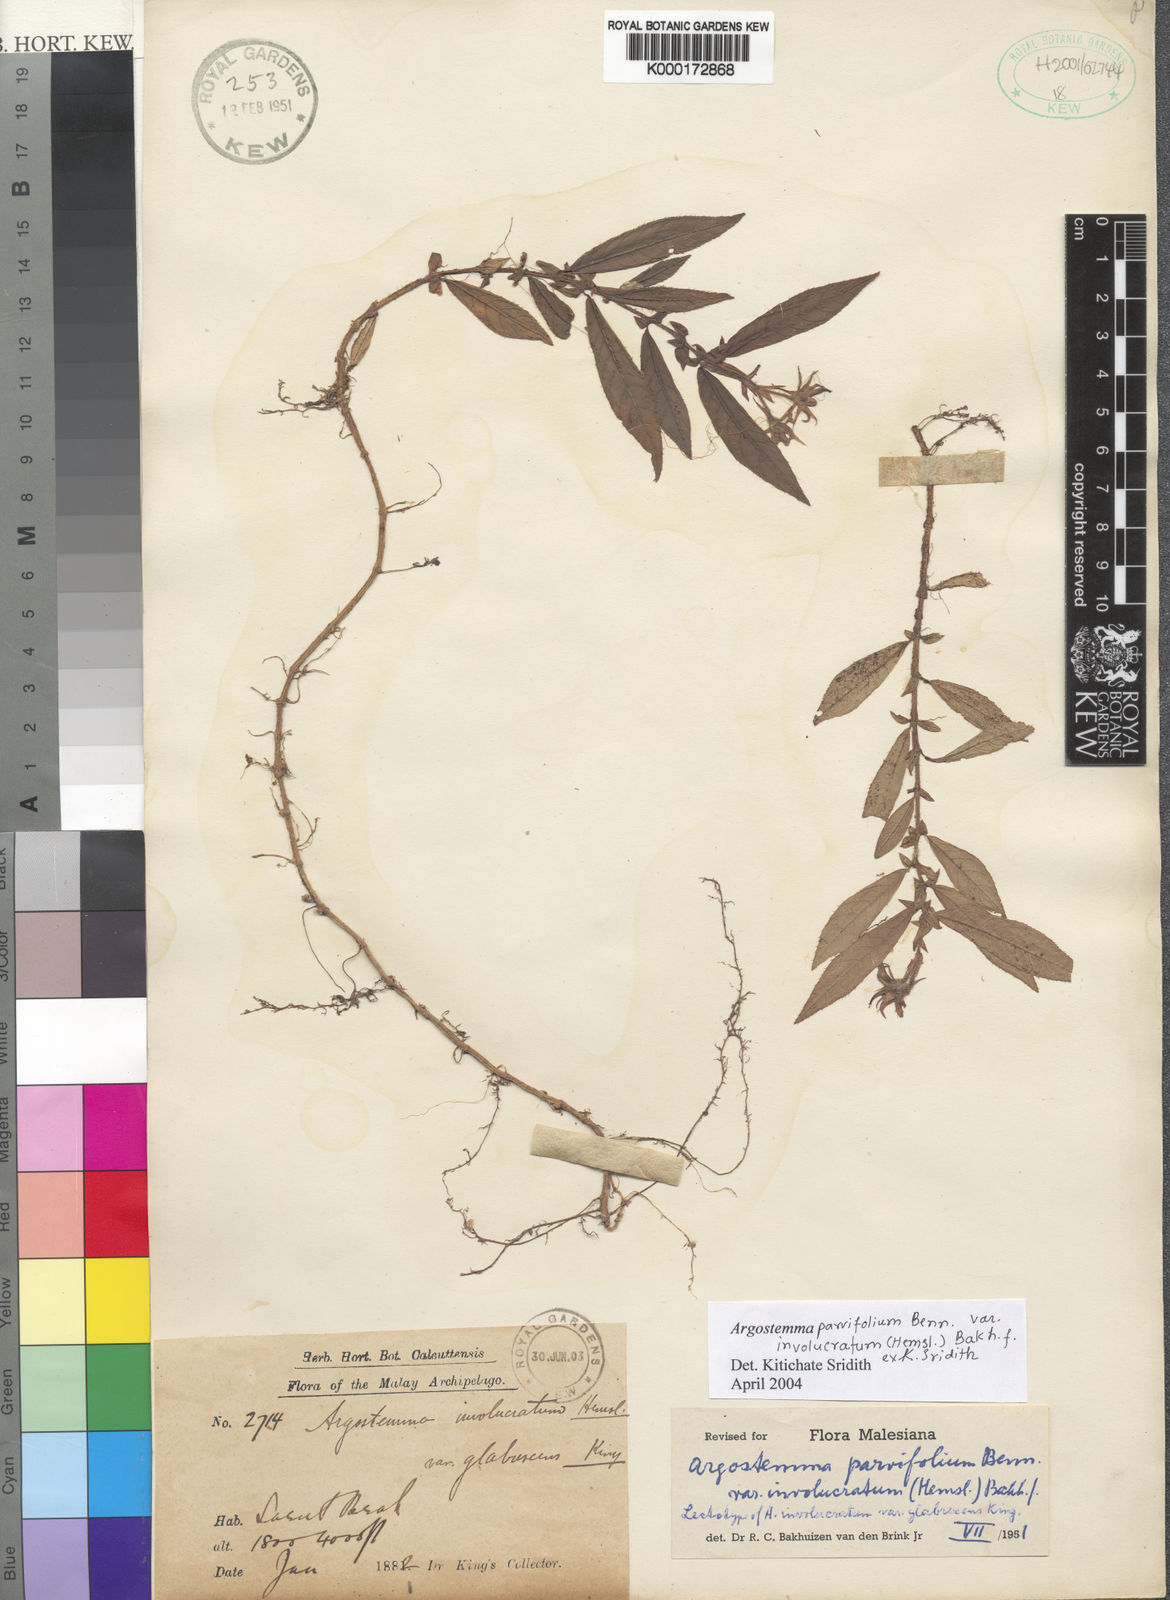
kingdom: Plantae
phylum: Tracheophyta
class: Magnoliopsida
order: Gentianales
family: Rubiaceae
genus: Argostemma
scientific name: Argostemma parvifolium
